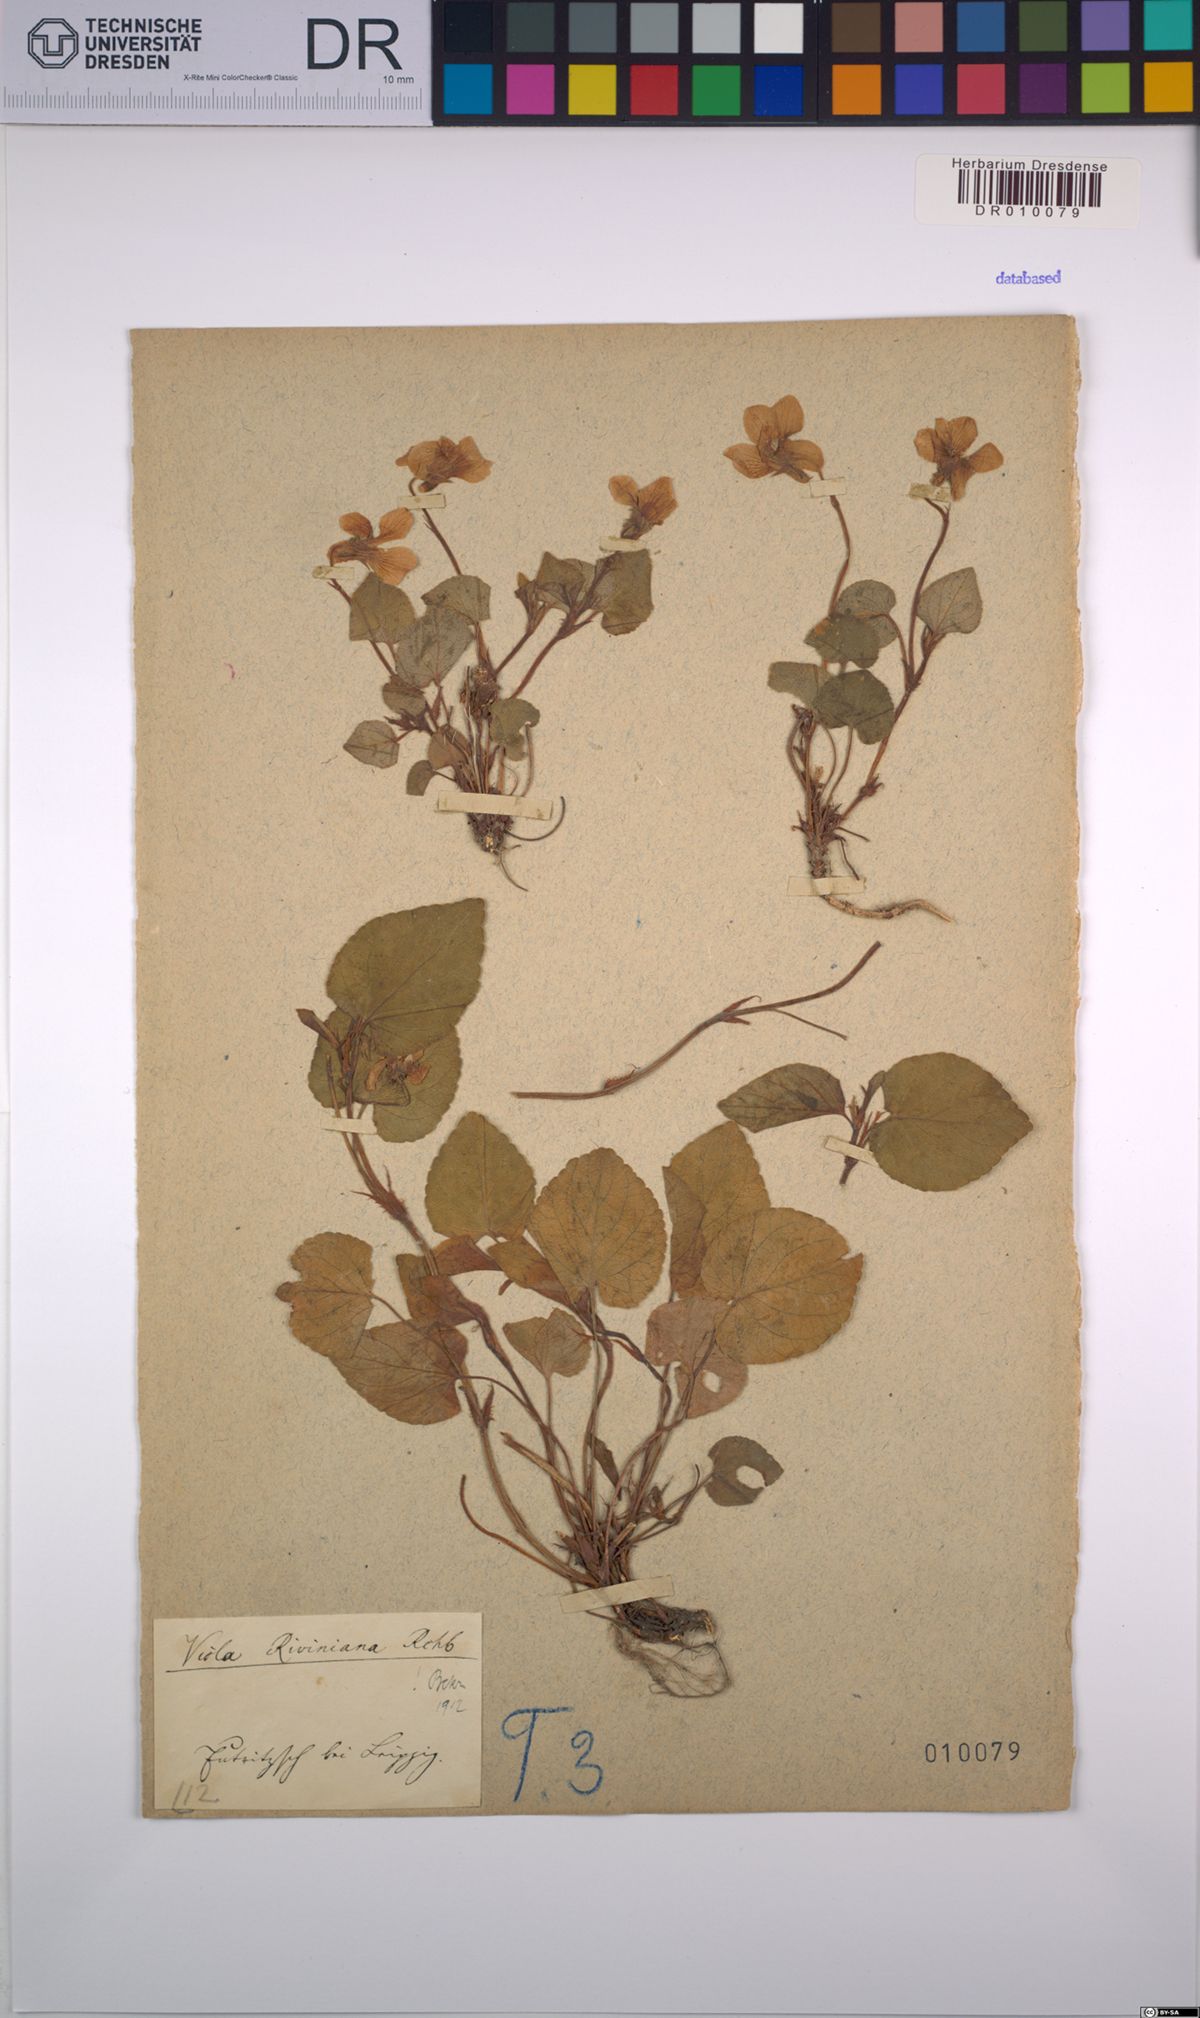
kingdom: Plantae
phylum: Tracheophyta
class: Magnoliopsida
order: Malpighiales
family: Violaceae
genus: Viola
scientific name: Viola riviniana
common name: Common dog-violet
